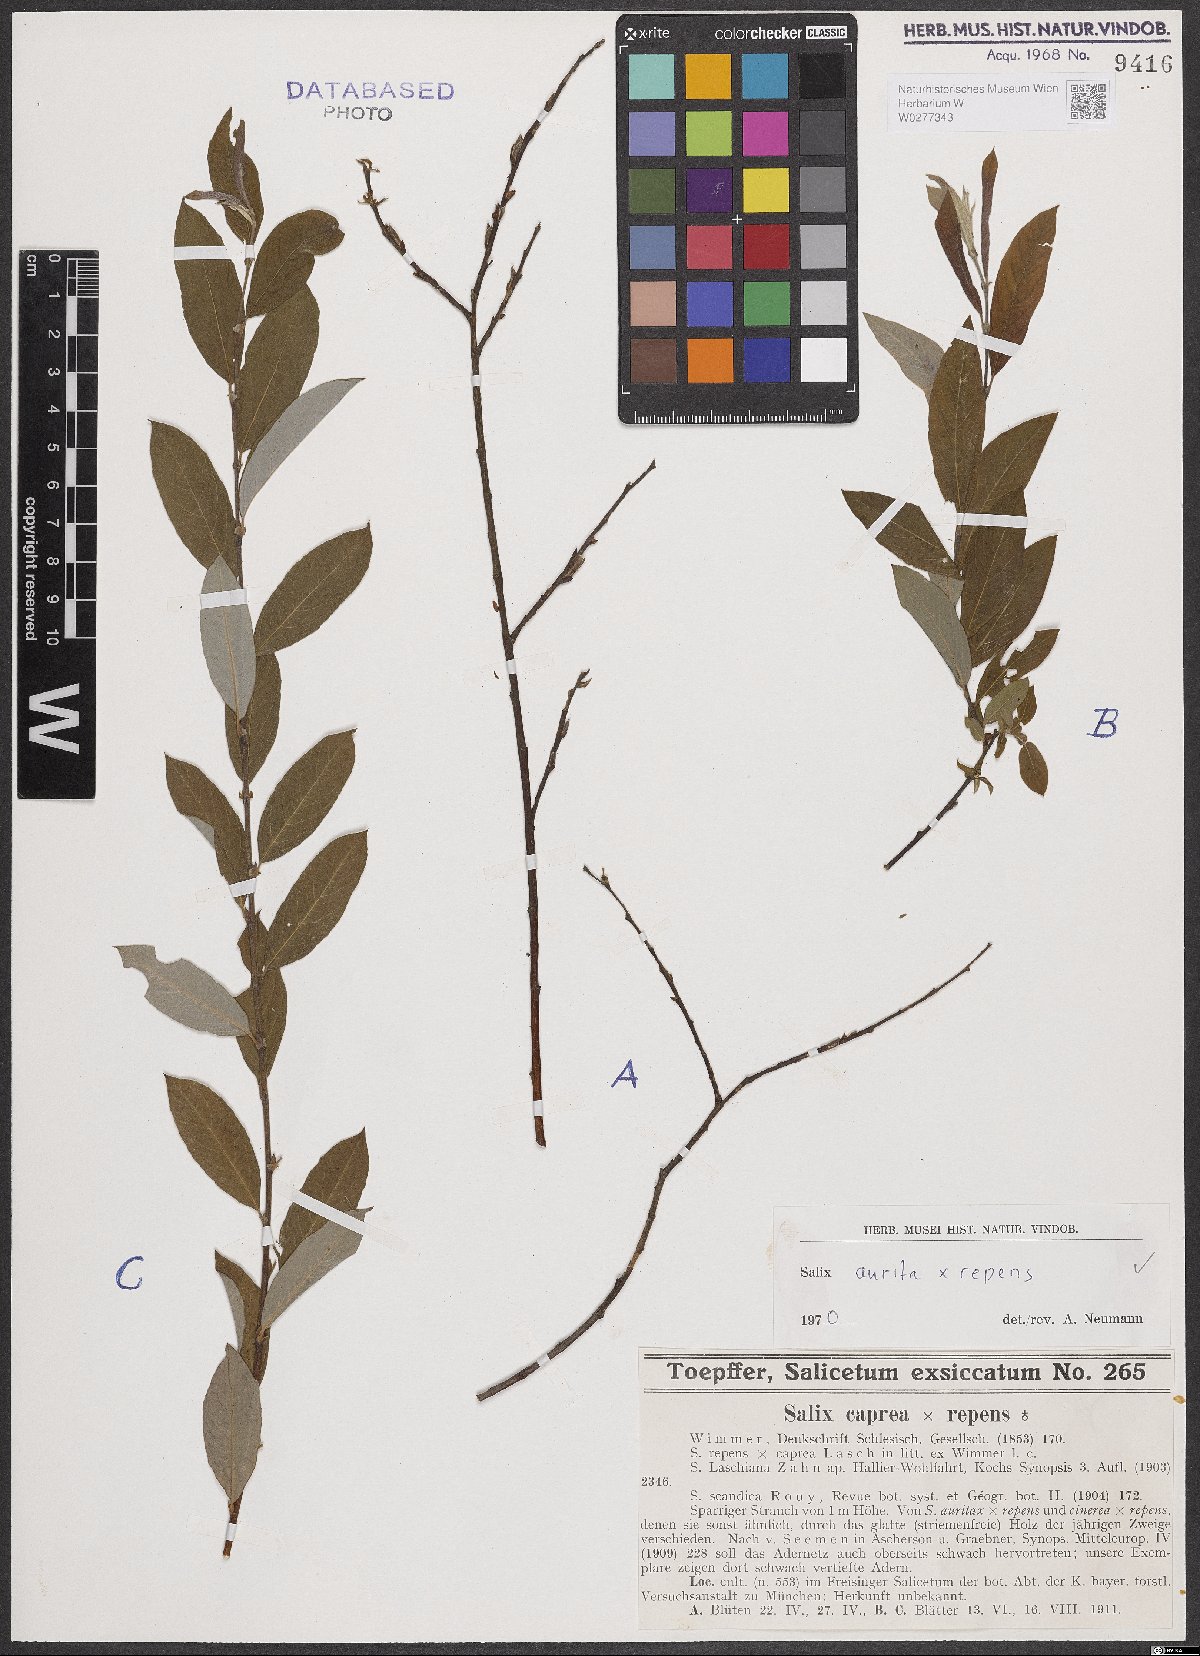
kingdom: Plantae
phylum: Tracheophyta
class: Magnoliopsida
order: Malpighiales
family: Salicaceae
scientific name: Salicaceae
